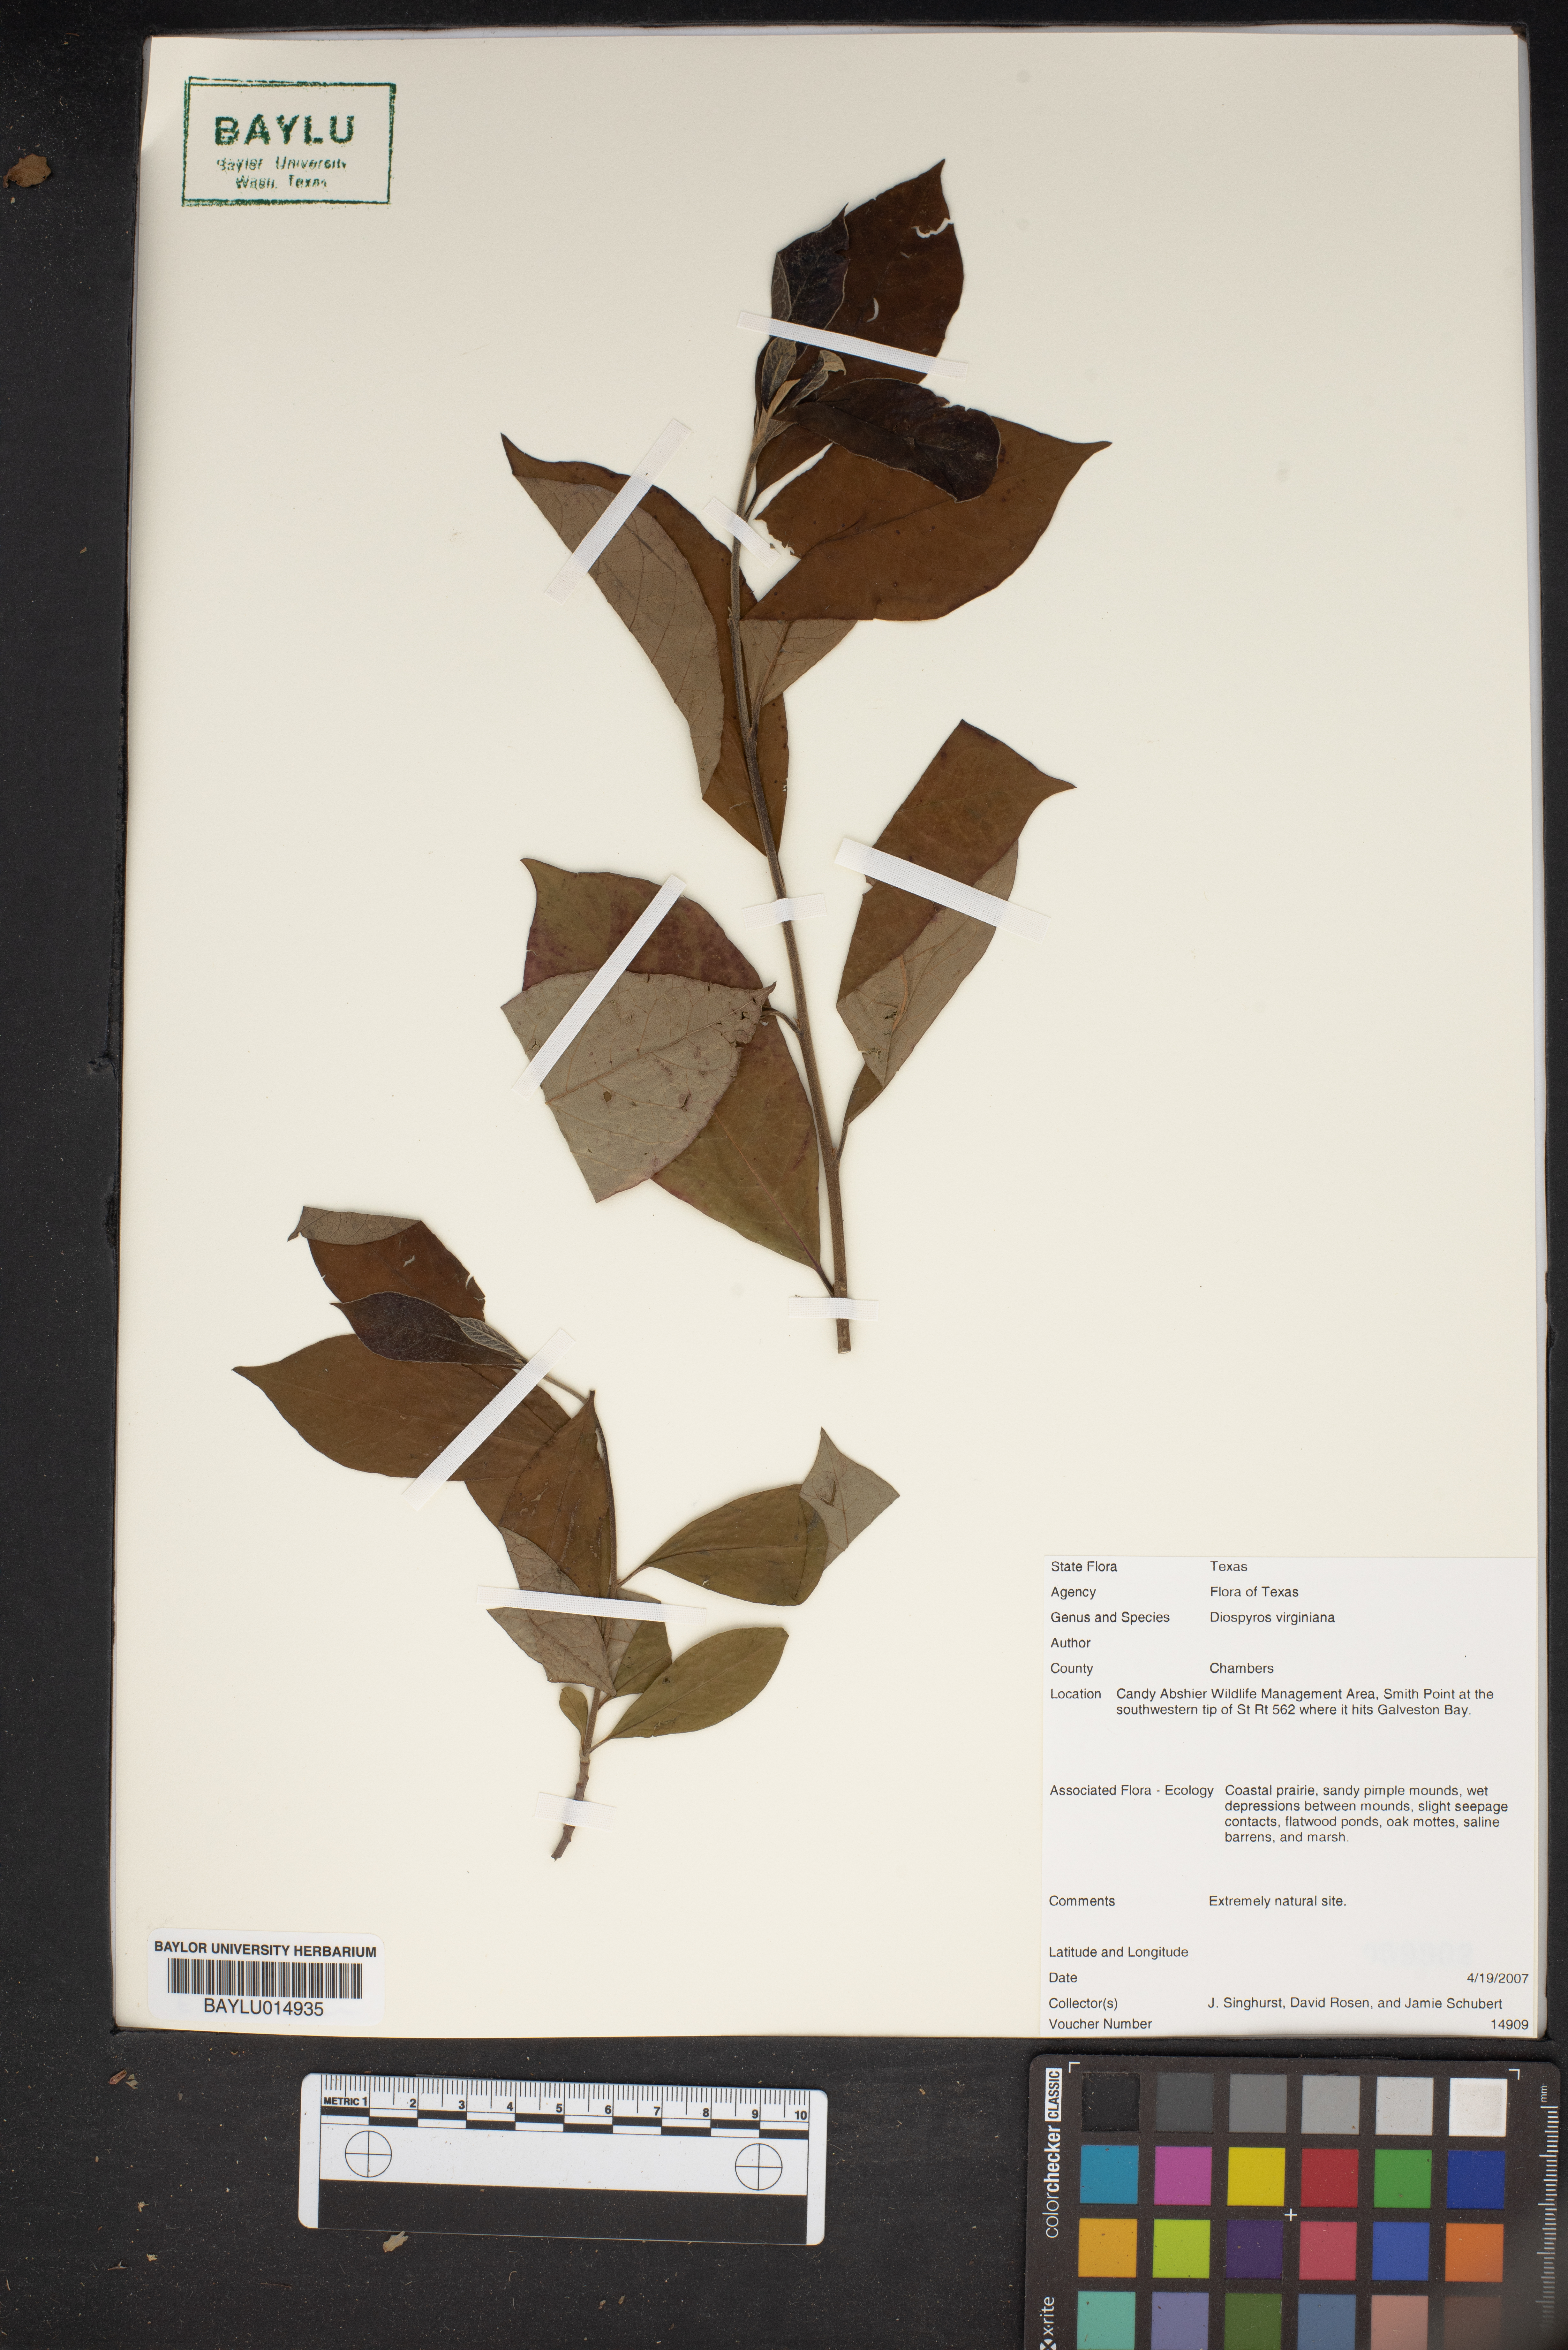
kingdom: Plantae
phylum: Tracheophyta
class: Magnoliopsida
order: Ericales
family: Ebenaceae
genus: Diospyros
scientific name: Diospyros virginiana
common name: Persimmon
